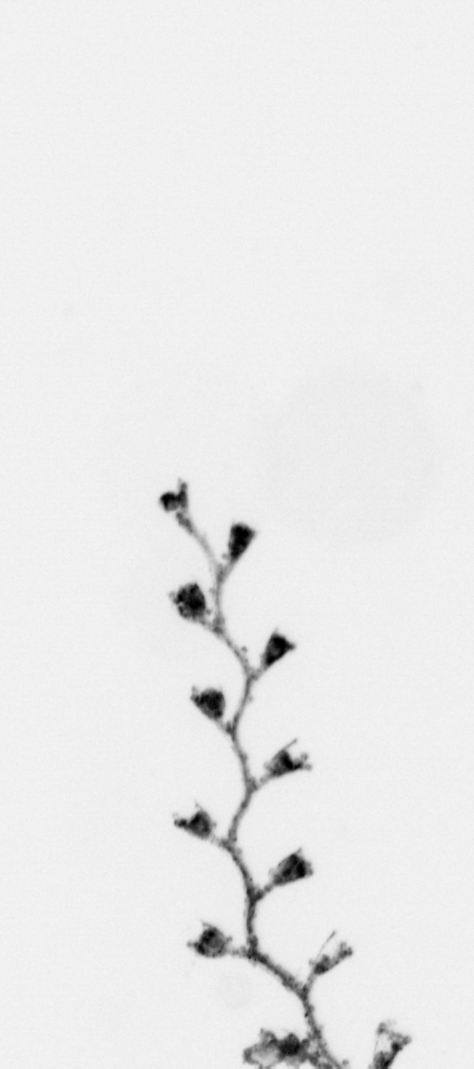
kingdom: Animalia
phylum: Cnidaria
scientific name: Cnidaria
